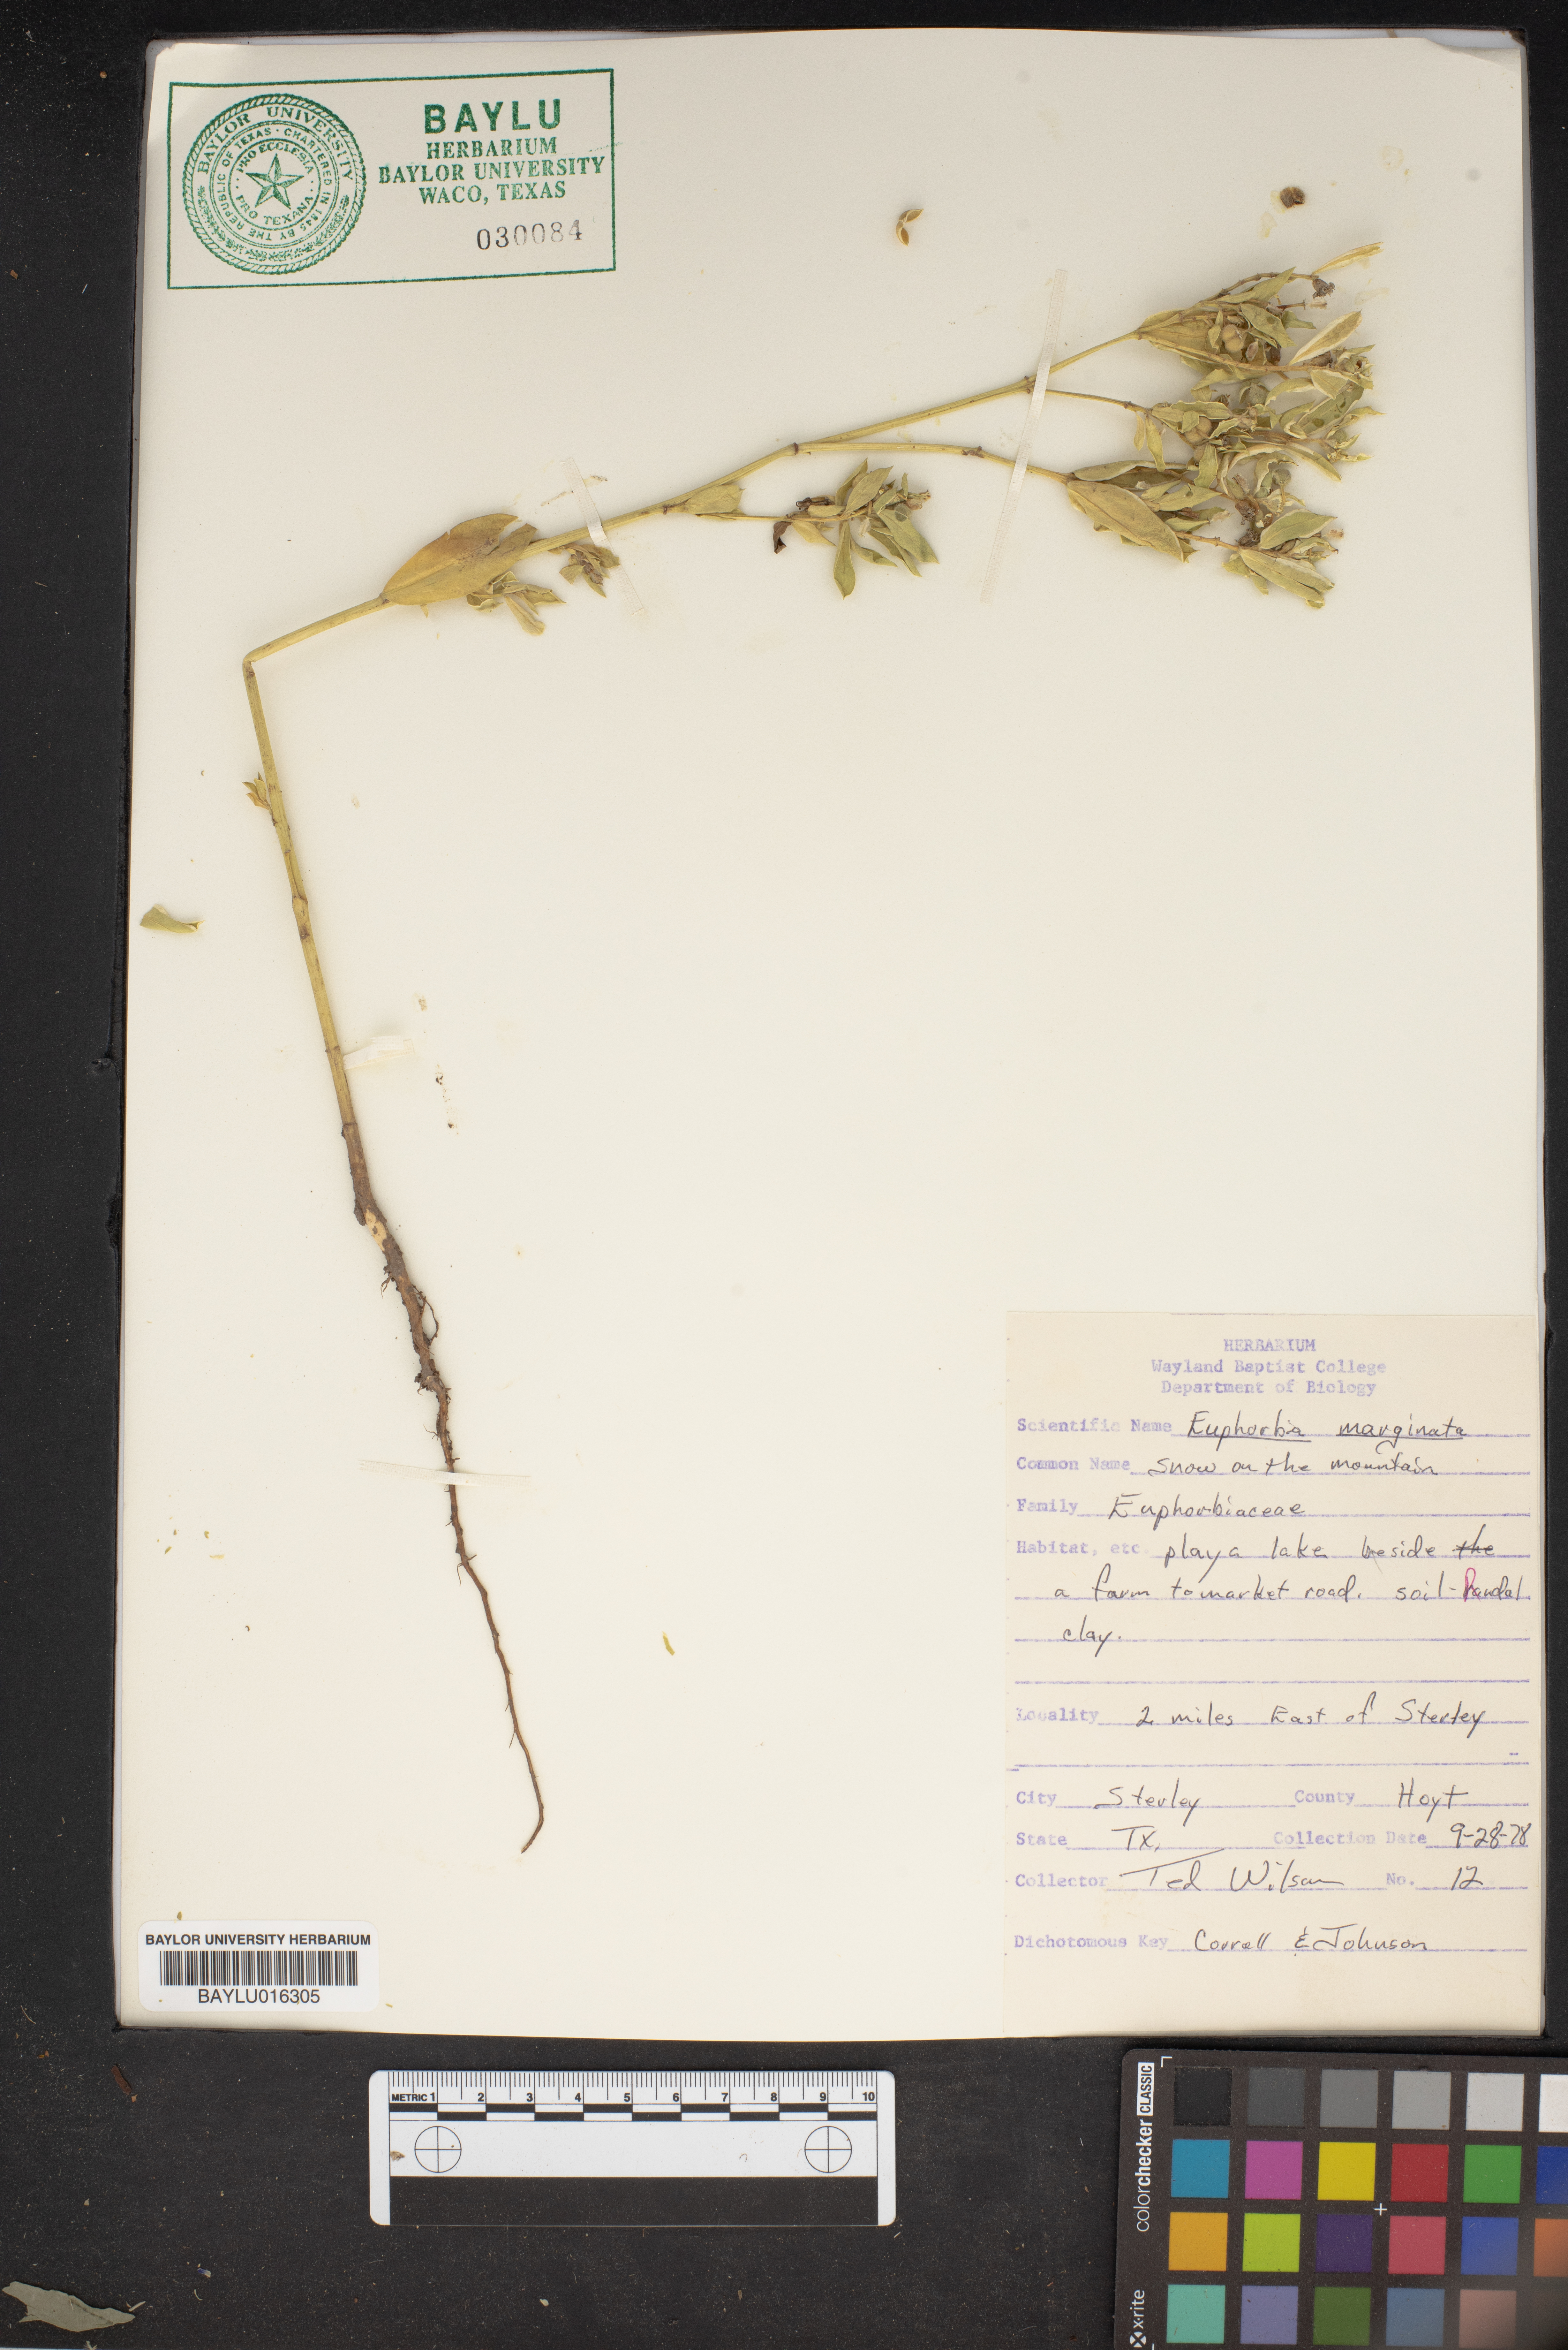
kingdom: Plantae
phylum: Tracheophyta
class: Magnoliopsida
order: Malpighiales
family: Euphorbiaceae
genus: Euphorbia
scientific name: Euphorbia marginata
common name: Ghostweed
